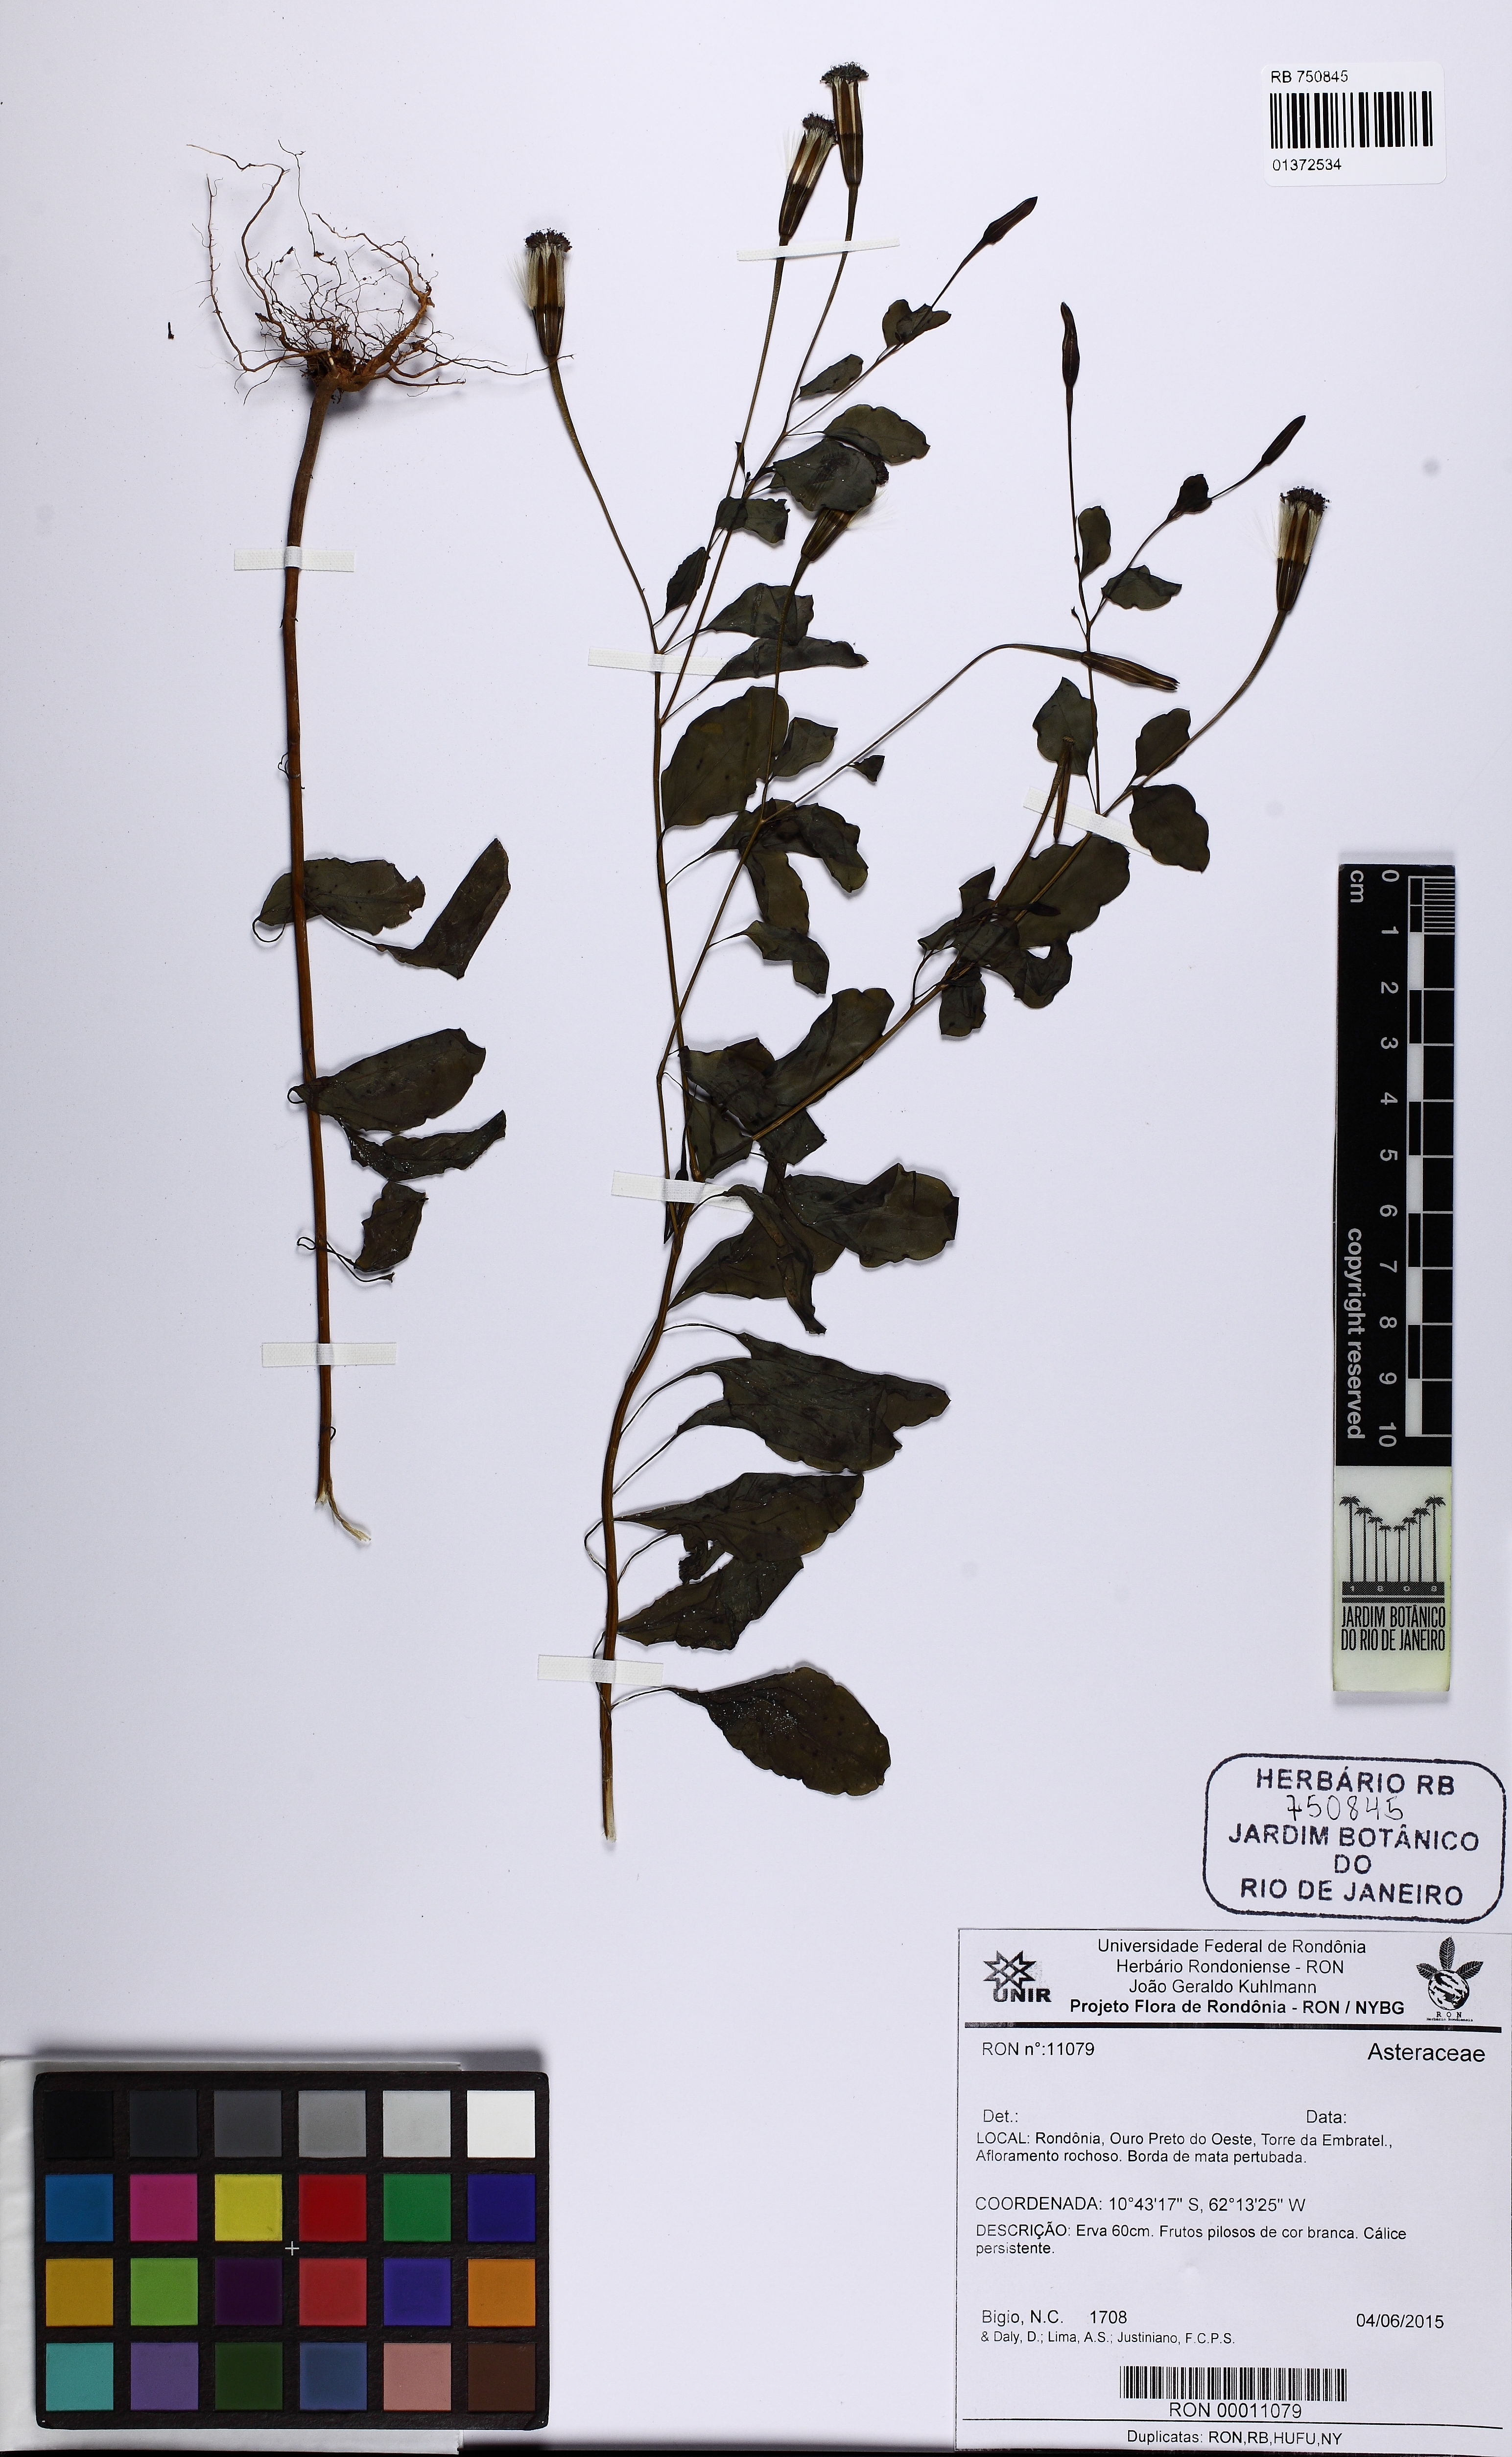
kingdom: Plantae
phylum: Tracheophyta
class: Magnoliopsida
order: Asterales
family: Asteraceae
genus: Porophyllum
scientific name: Porophyllum ruderale
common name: Yerba porosa
